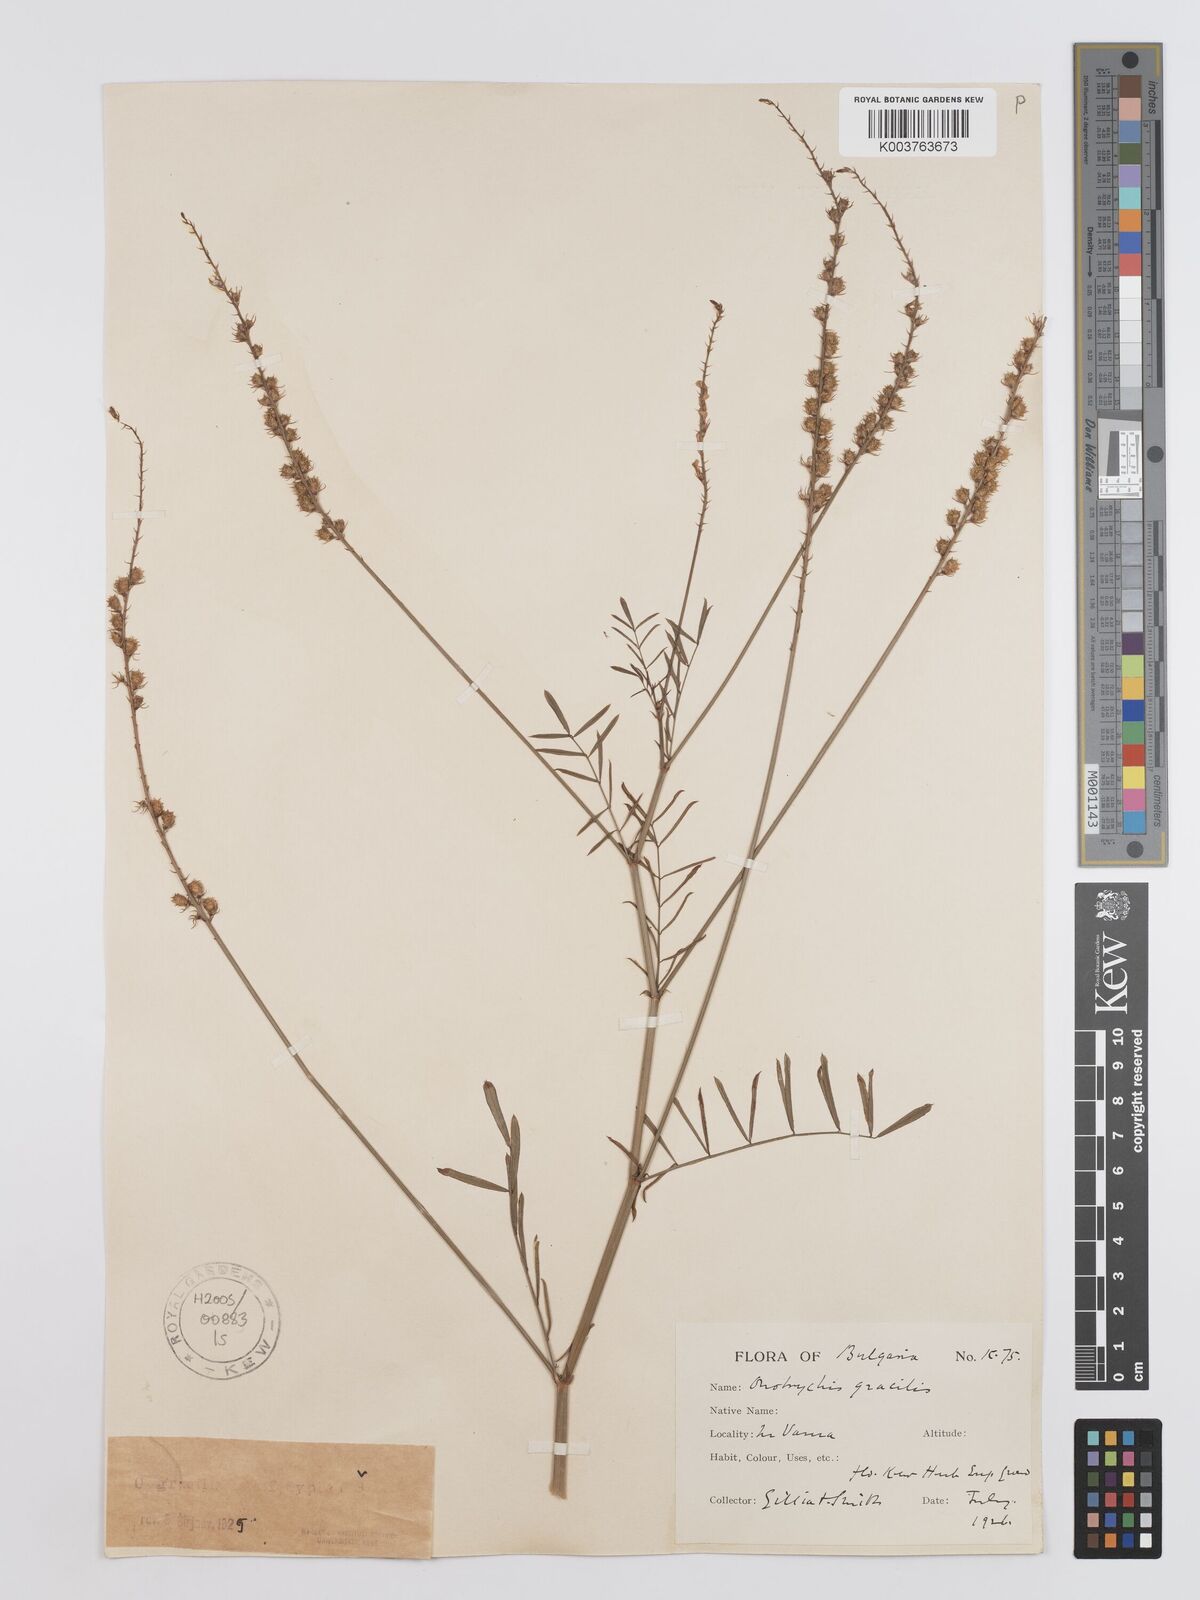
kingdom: Plantae
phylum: Tracheophyta
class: Magnoliopsida
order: Fabales
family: Fabaceae
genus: Onobrychis
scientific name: Onobrychis gracilis
